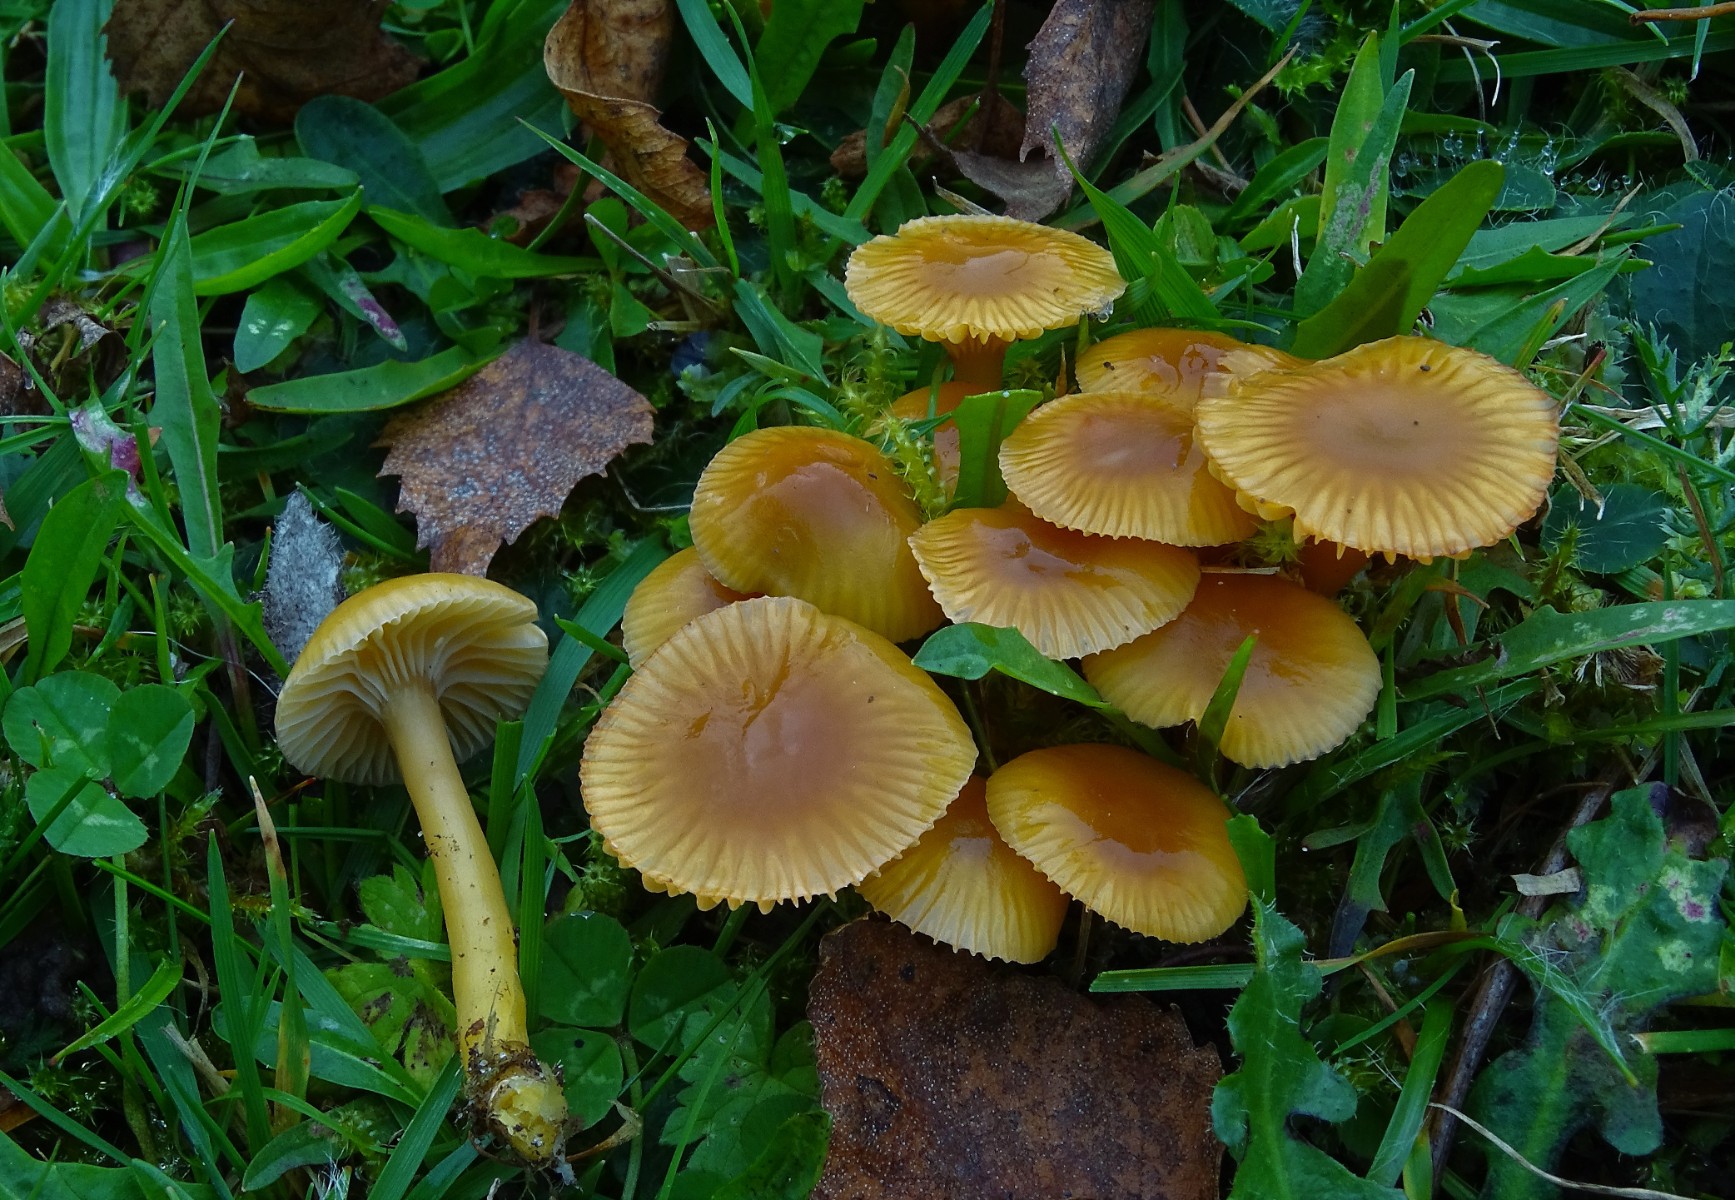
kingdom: Fungi
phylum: Basidiomycota
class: Agaricomycetes
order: Agaricales
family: Hygrophoraceae
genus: Gliophorus
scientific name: Gliophorus laetus
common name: brusk-vokshat
